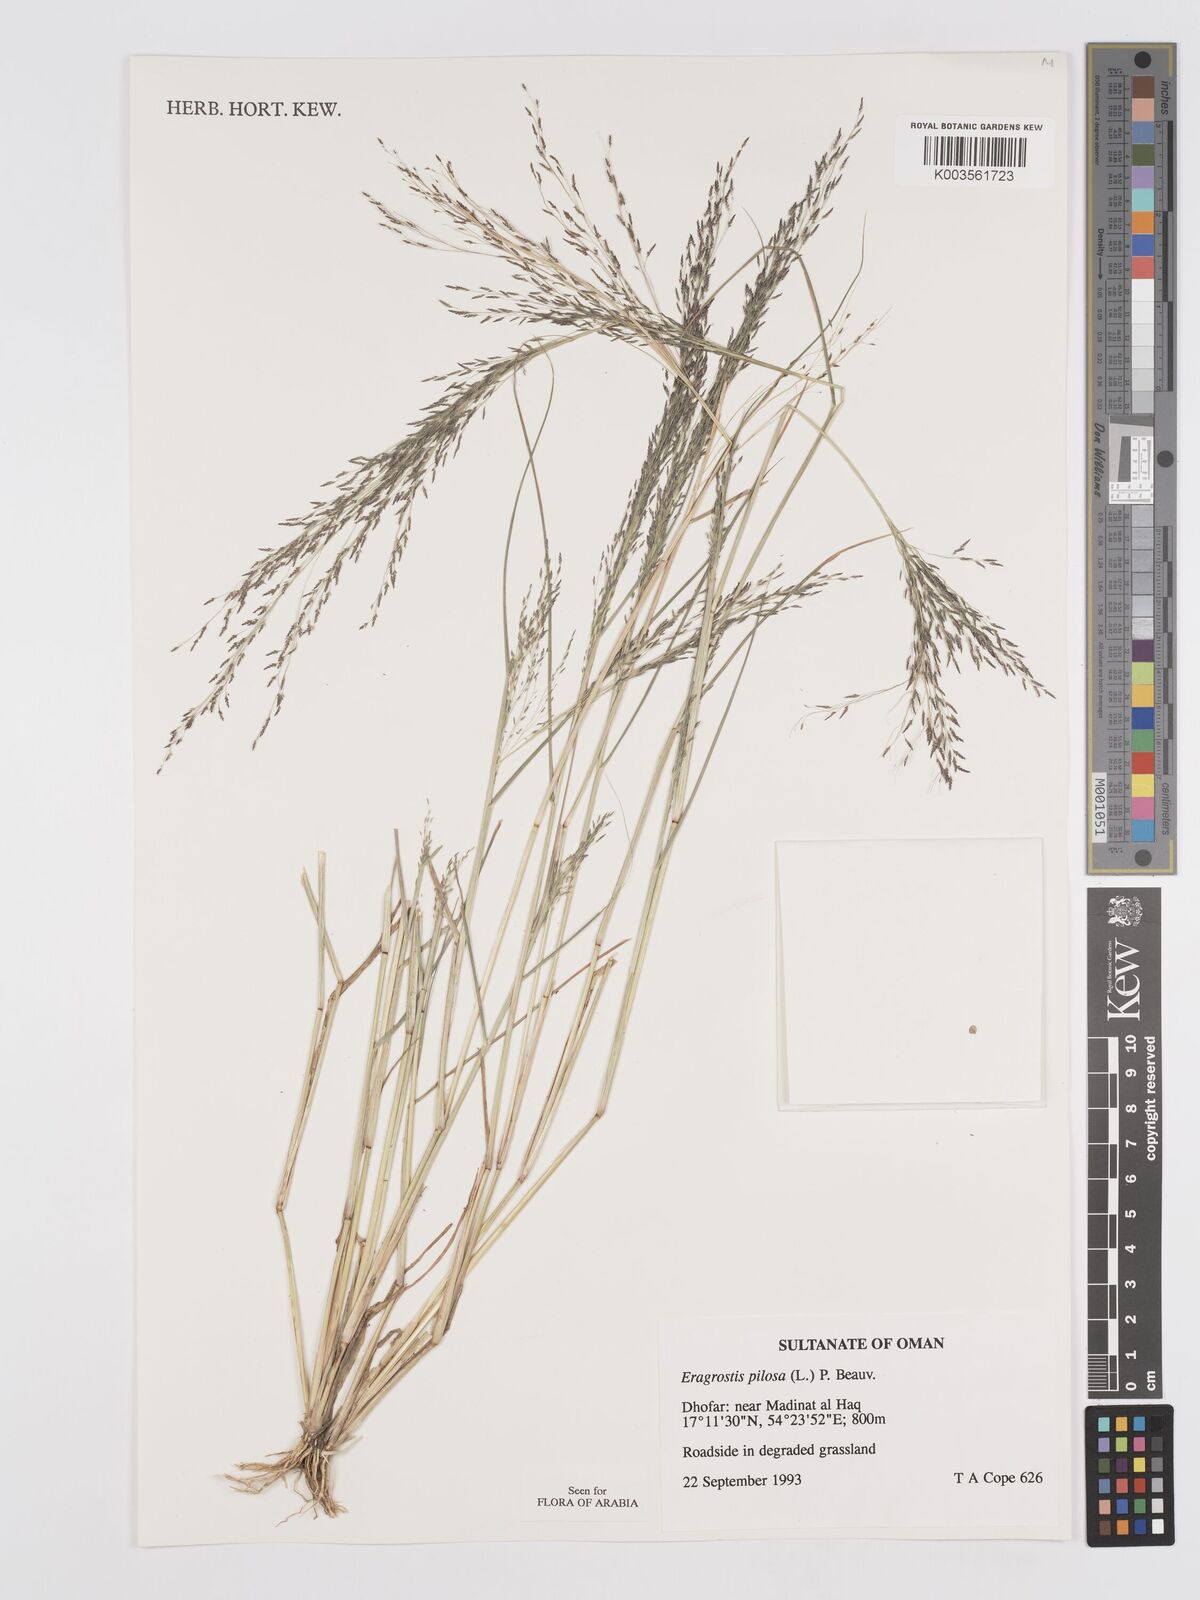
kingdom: Plantae
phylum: Tracheophyta
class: Liliopsida
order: Poales
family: Poaceae
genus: Eragrostis
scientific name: Eragrostis pilosa
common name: Indian lovegrass
